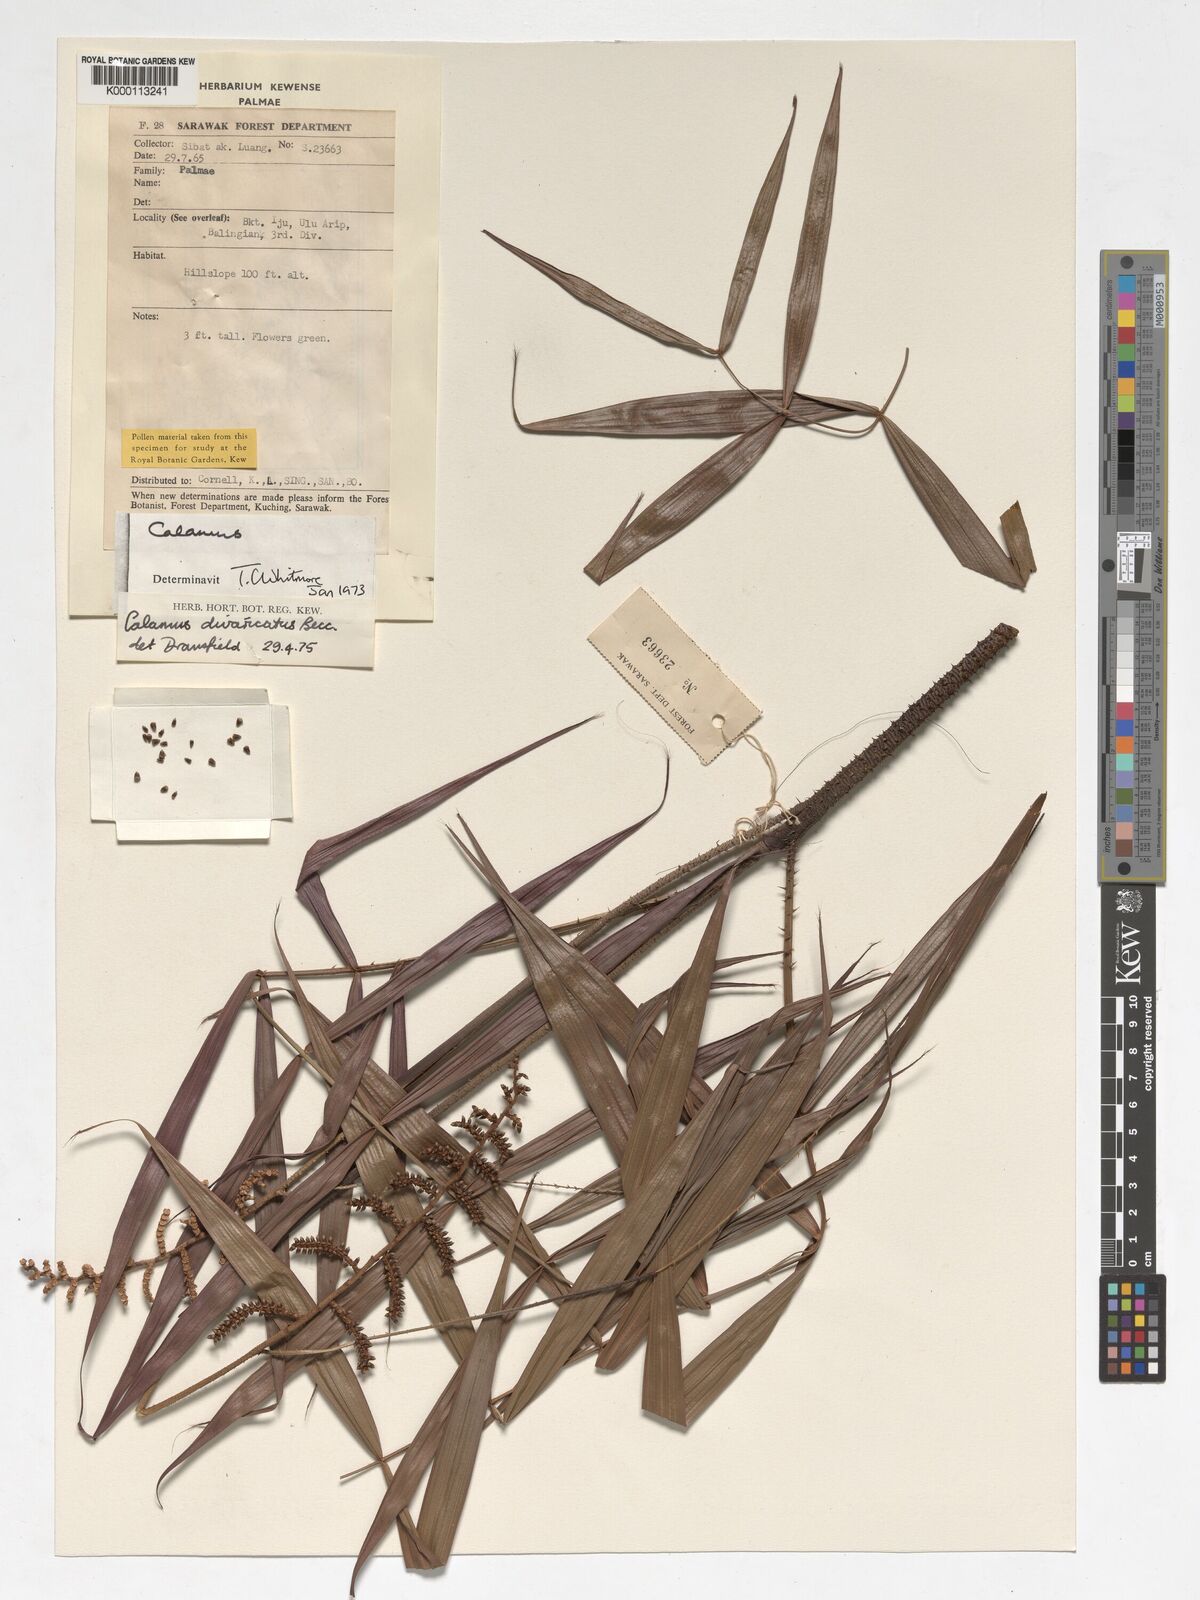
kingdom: Plantae
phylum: Tracheophyta
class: Liliopsida
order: Arecales
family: Arecaceae
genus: Calamus
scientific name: Calamus divaricatus
